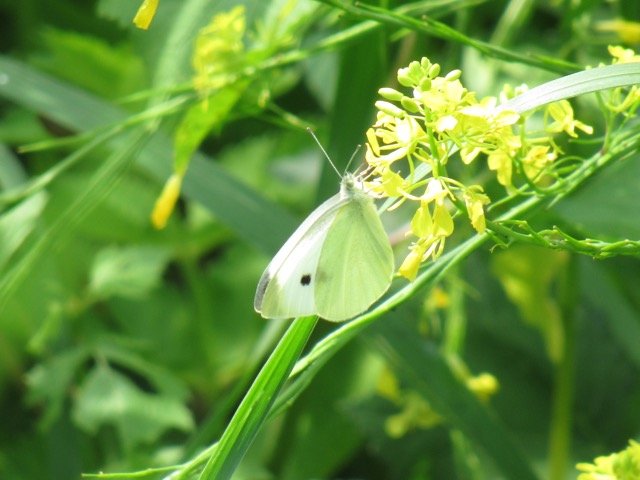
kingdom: Animalia
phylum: Arthropoda
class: Insecta
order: Lepidoptera
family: Pieridae
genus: Pieris
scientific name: Pieris rapae
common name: Cabbage White
